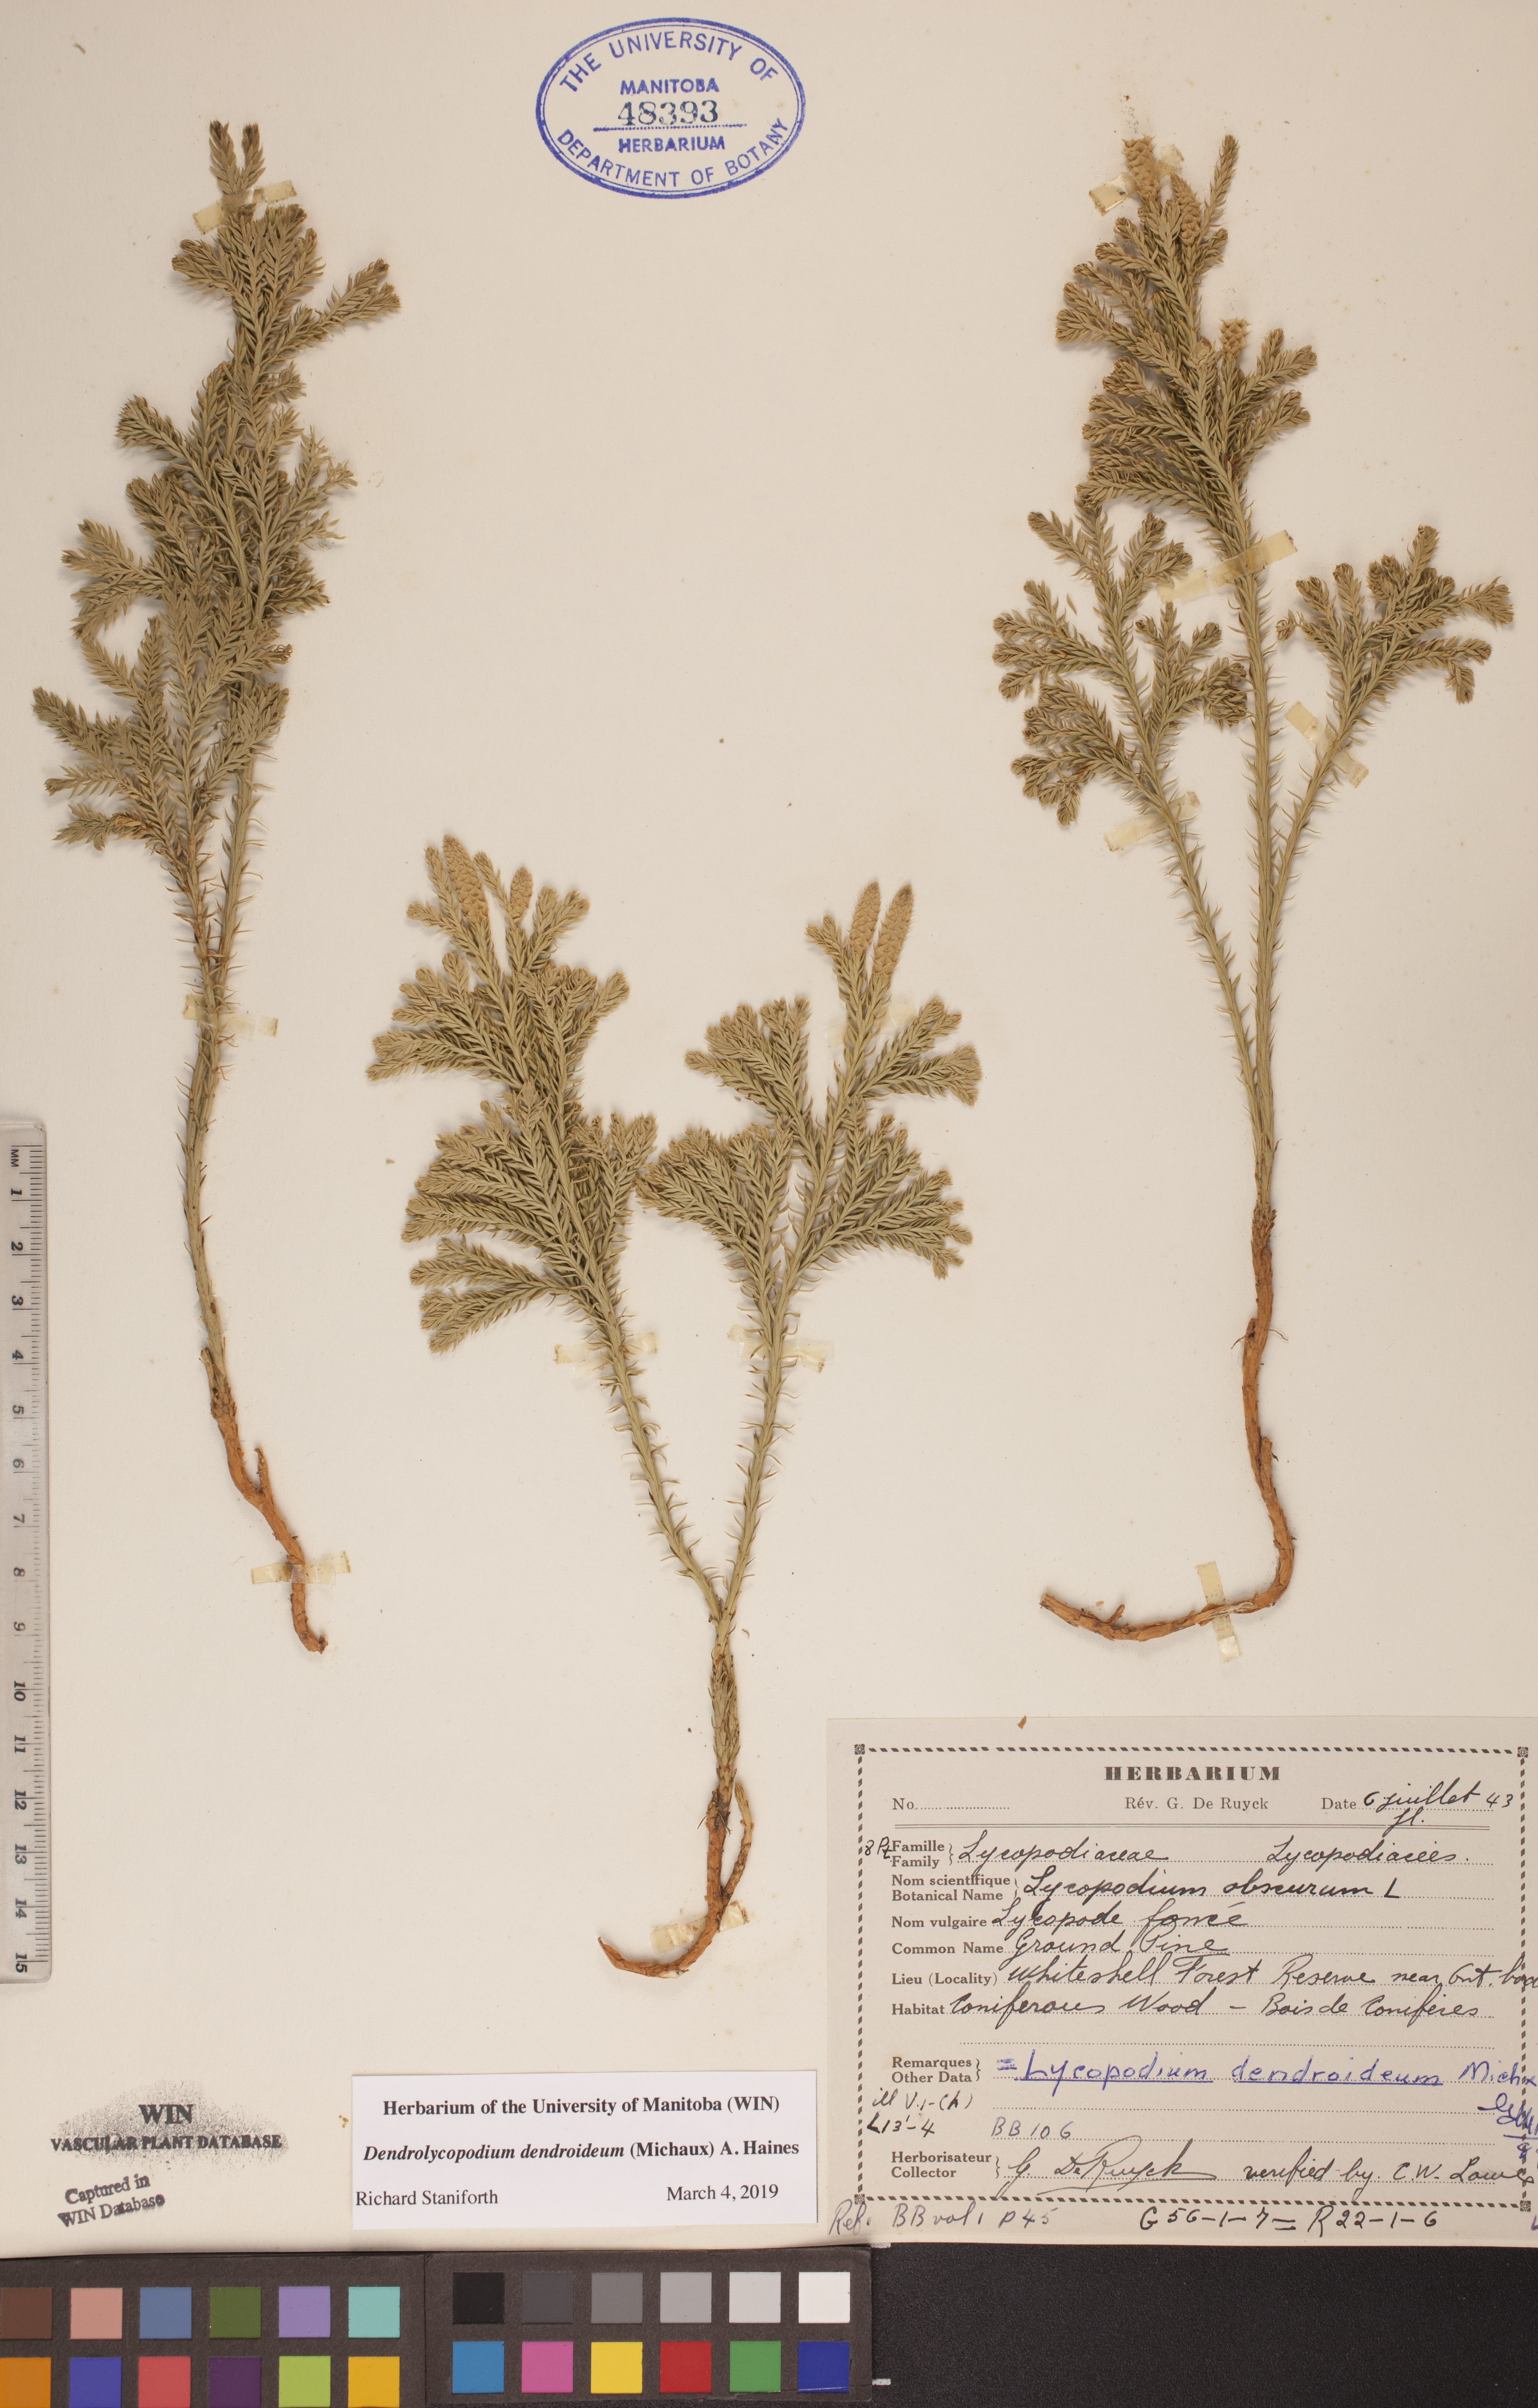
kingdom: Plantae
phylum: Tracheophyta
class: Lycopodiopsida
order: Lycopodiales
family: Lycopodiaceae
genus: Dendrolycopodium
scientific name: Dendrolycopodium dendroideum
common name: Northern tree-clubmoss
